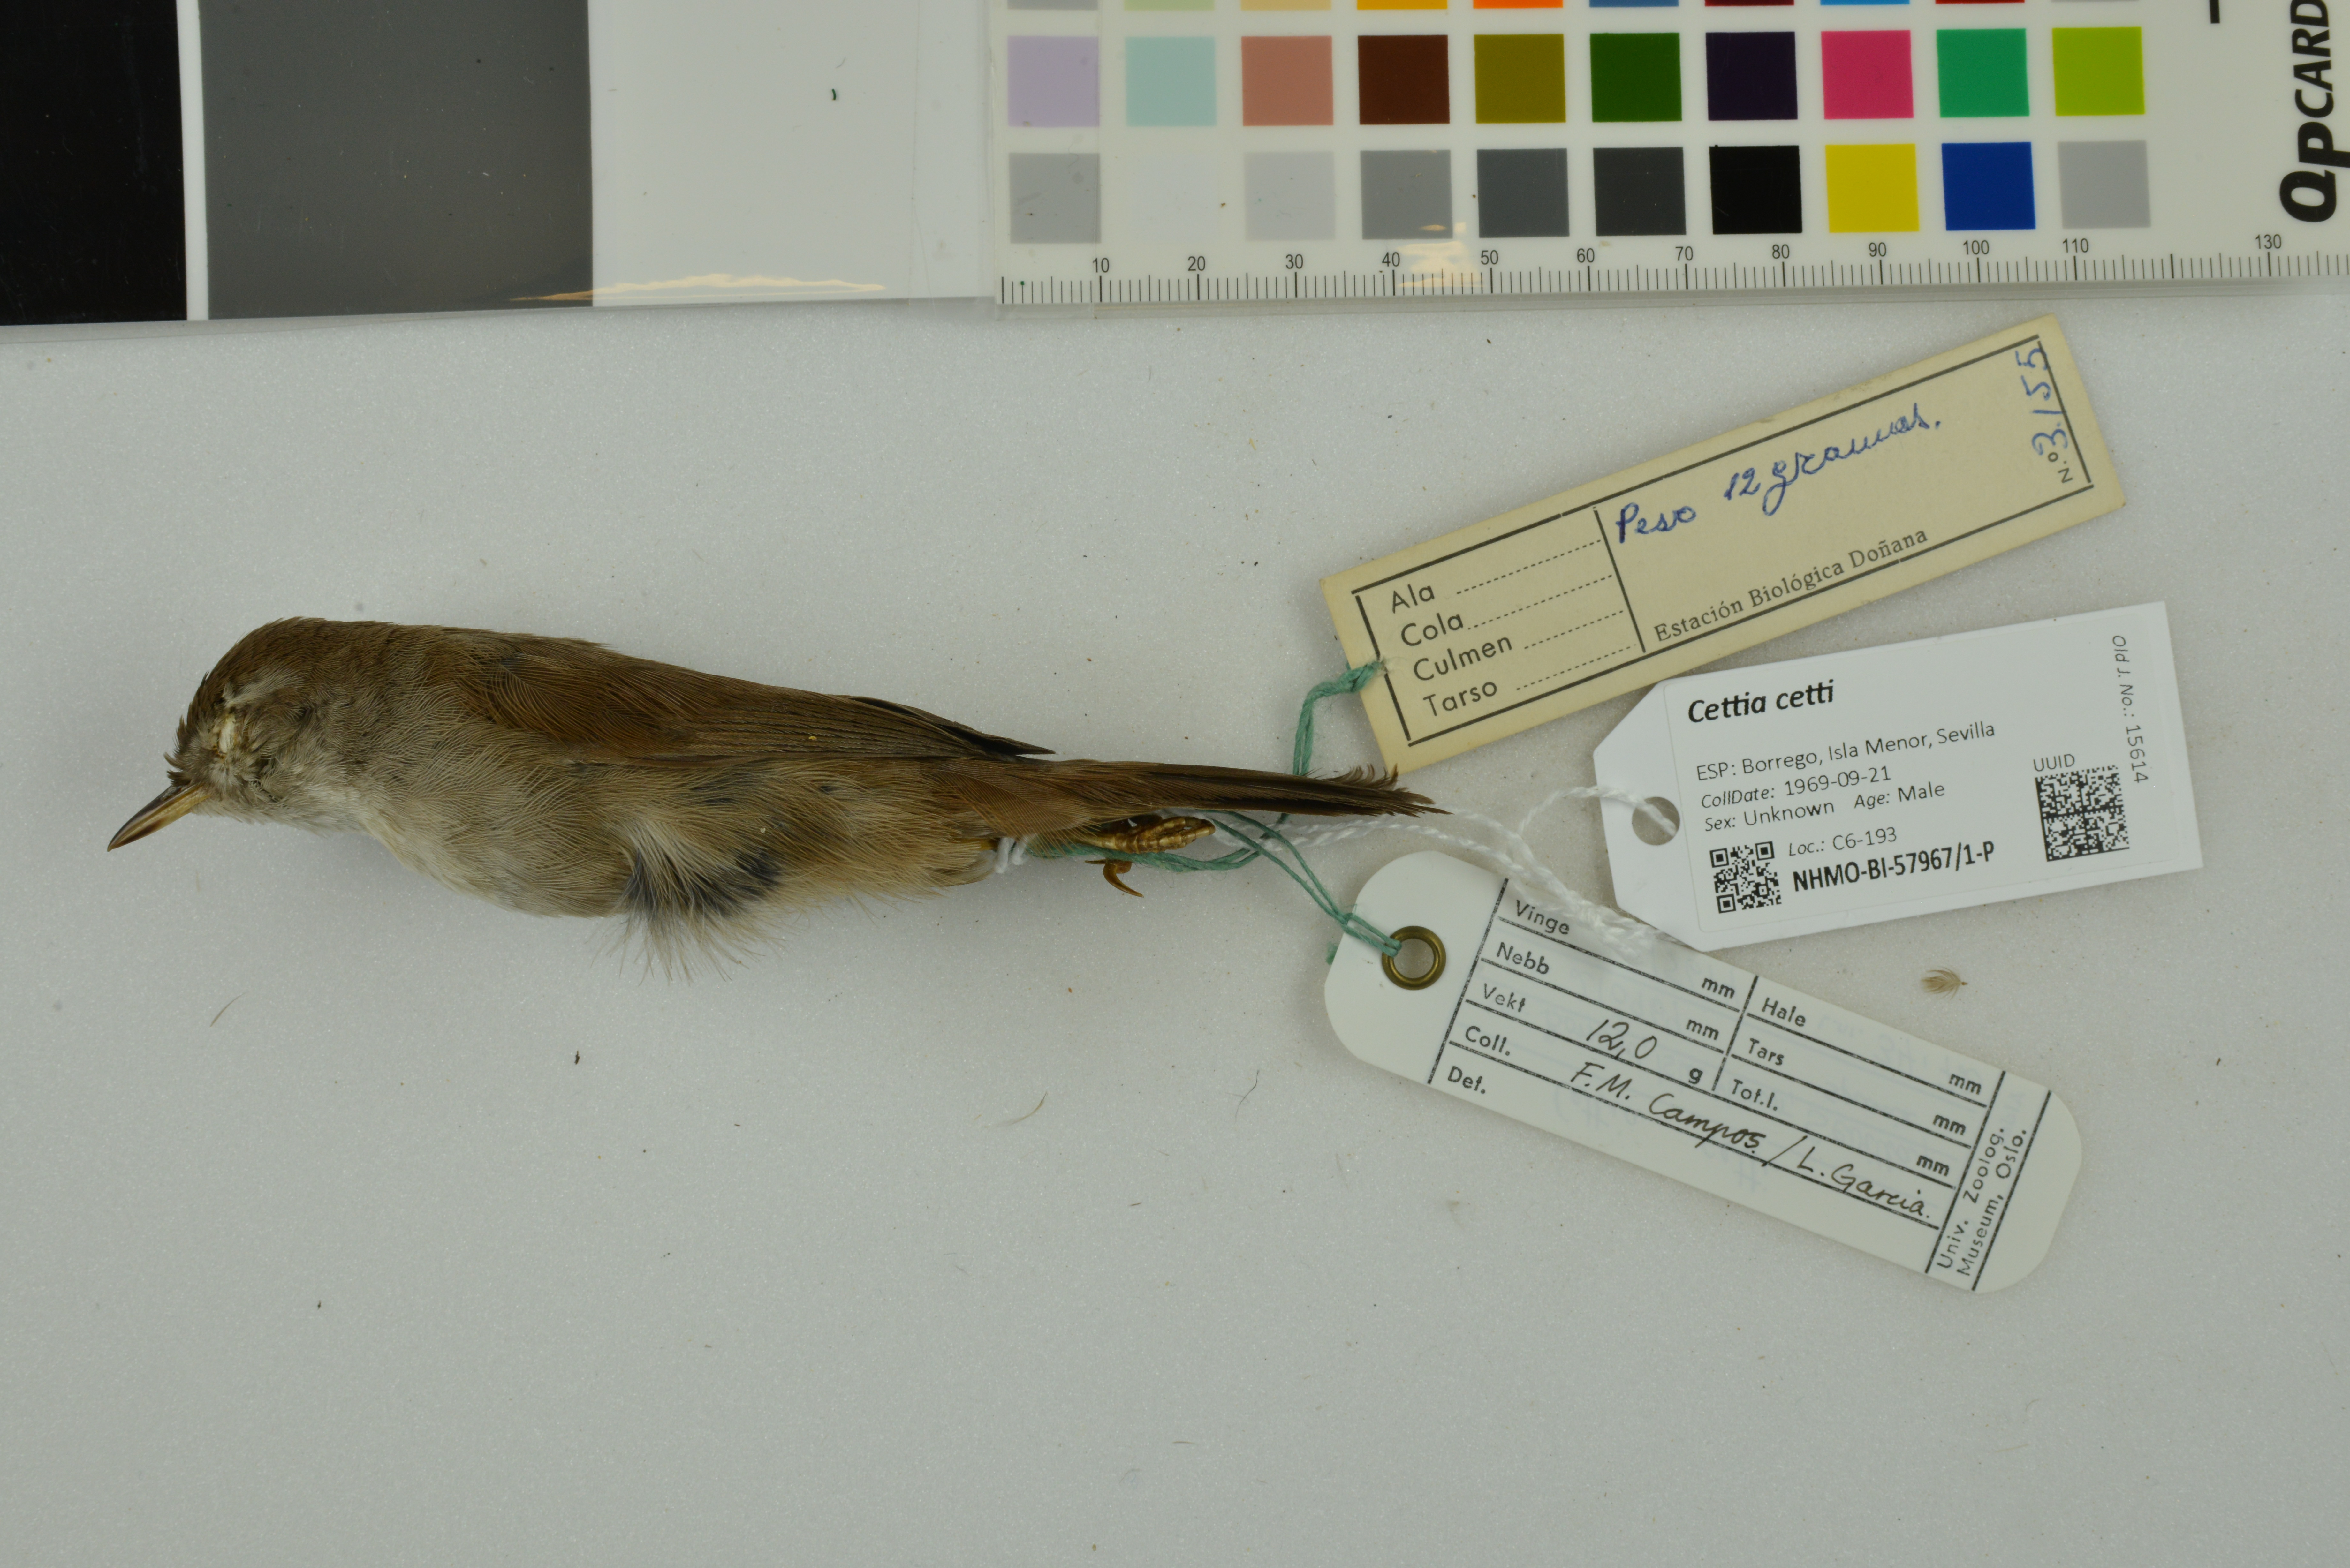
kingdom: Animalia
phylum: Chordata
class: Aves
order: Passeriformes
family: Cettiidae
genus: Cettia
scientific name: Cettia cetti
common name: Cetti's warbler
